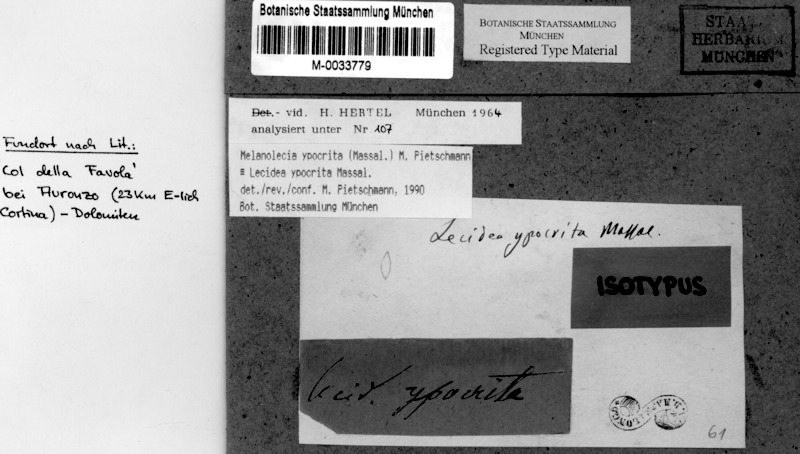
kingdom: Fungi
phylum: Ascomycota
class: Lecanoromycetes
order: Lecideales
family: Lecideaceae
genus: Farnoldia
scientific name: Farnoldia hypocrita
